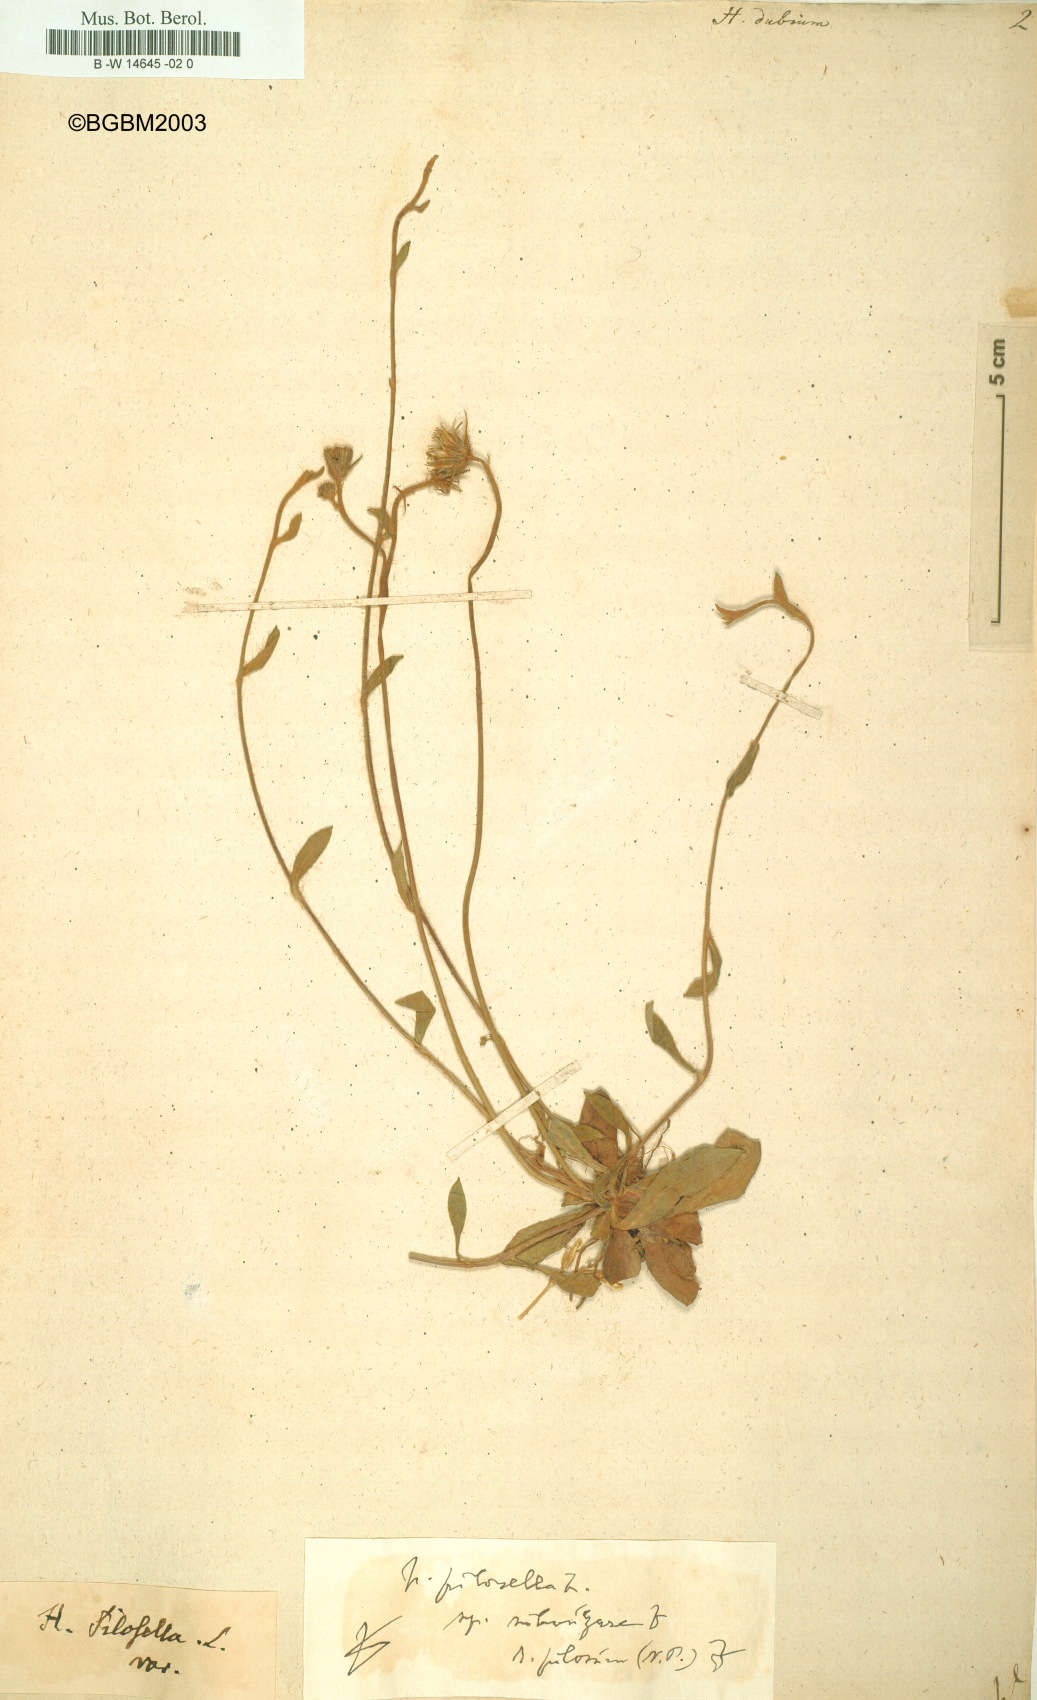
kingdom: Plantae
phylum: Tracheophyta
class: Magnoliopsida
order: Asterales
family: Asteraceae
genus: Hieracium
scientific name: Hieracium dubium
